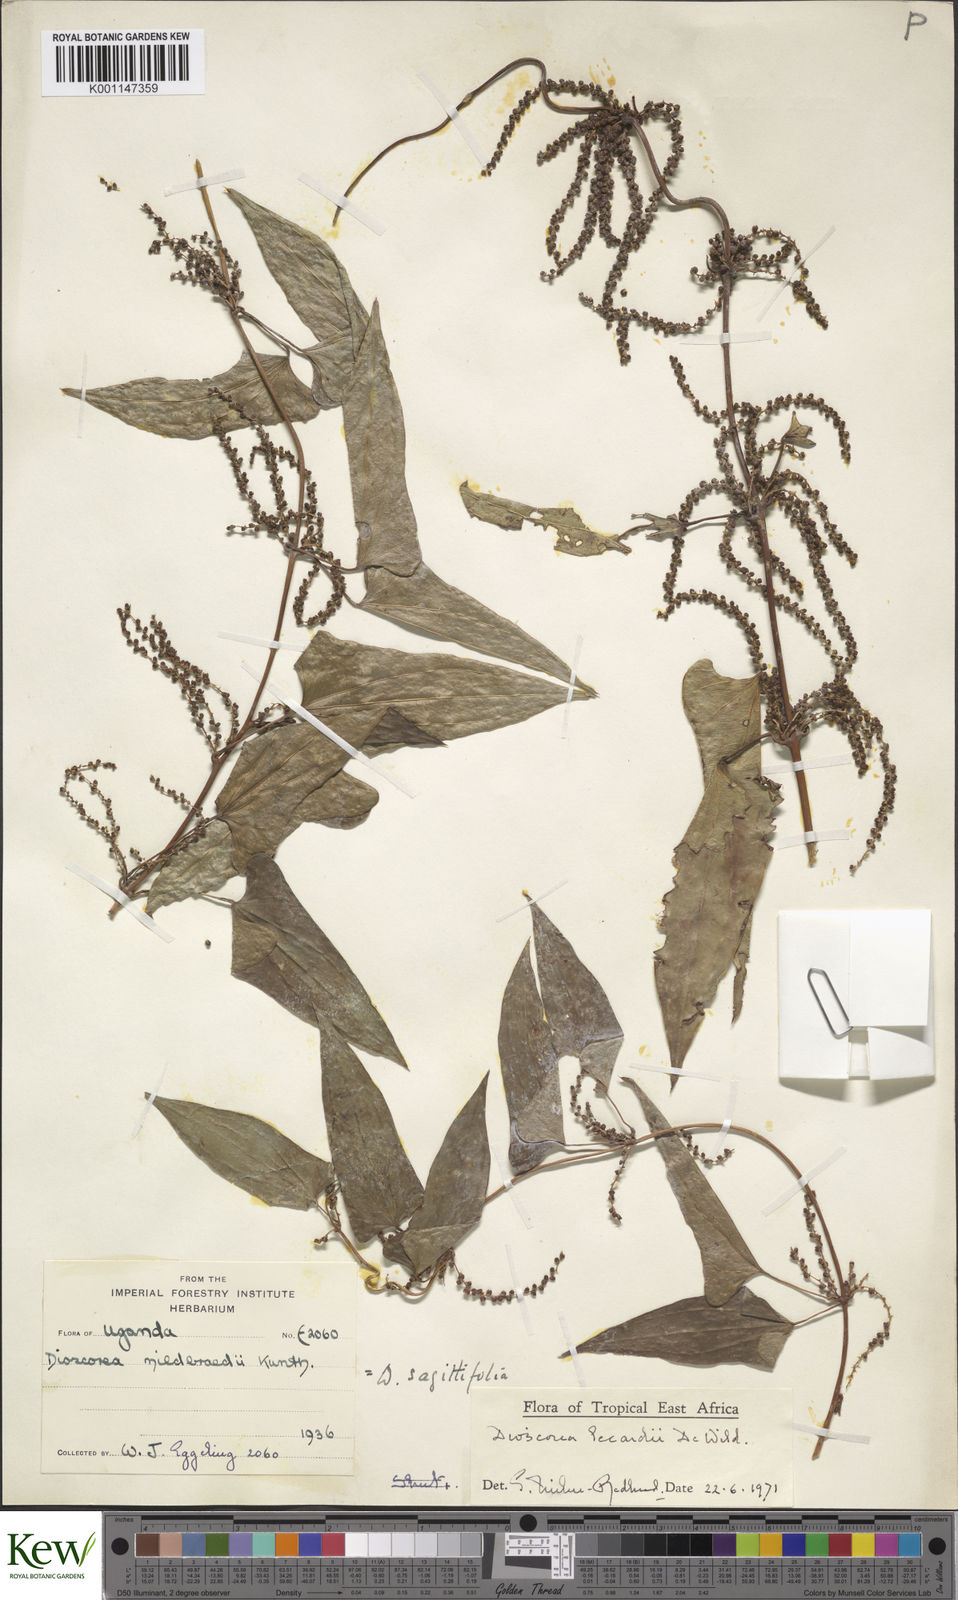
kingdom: Plantae
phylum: Tracheophyta
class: Liliopsida
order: Dioscoreales
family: Dioscoreaceae
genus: Dioscorea
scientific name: Dioscorea sagittifolia
